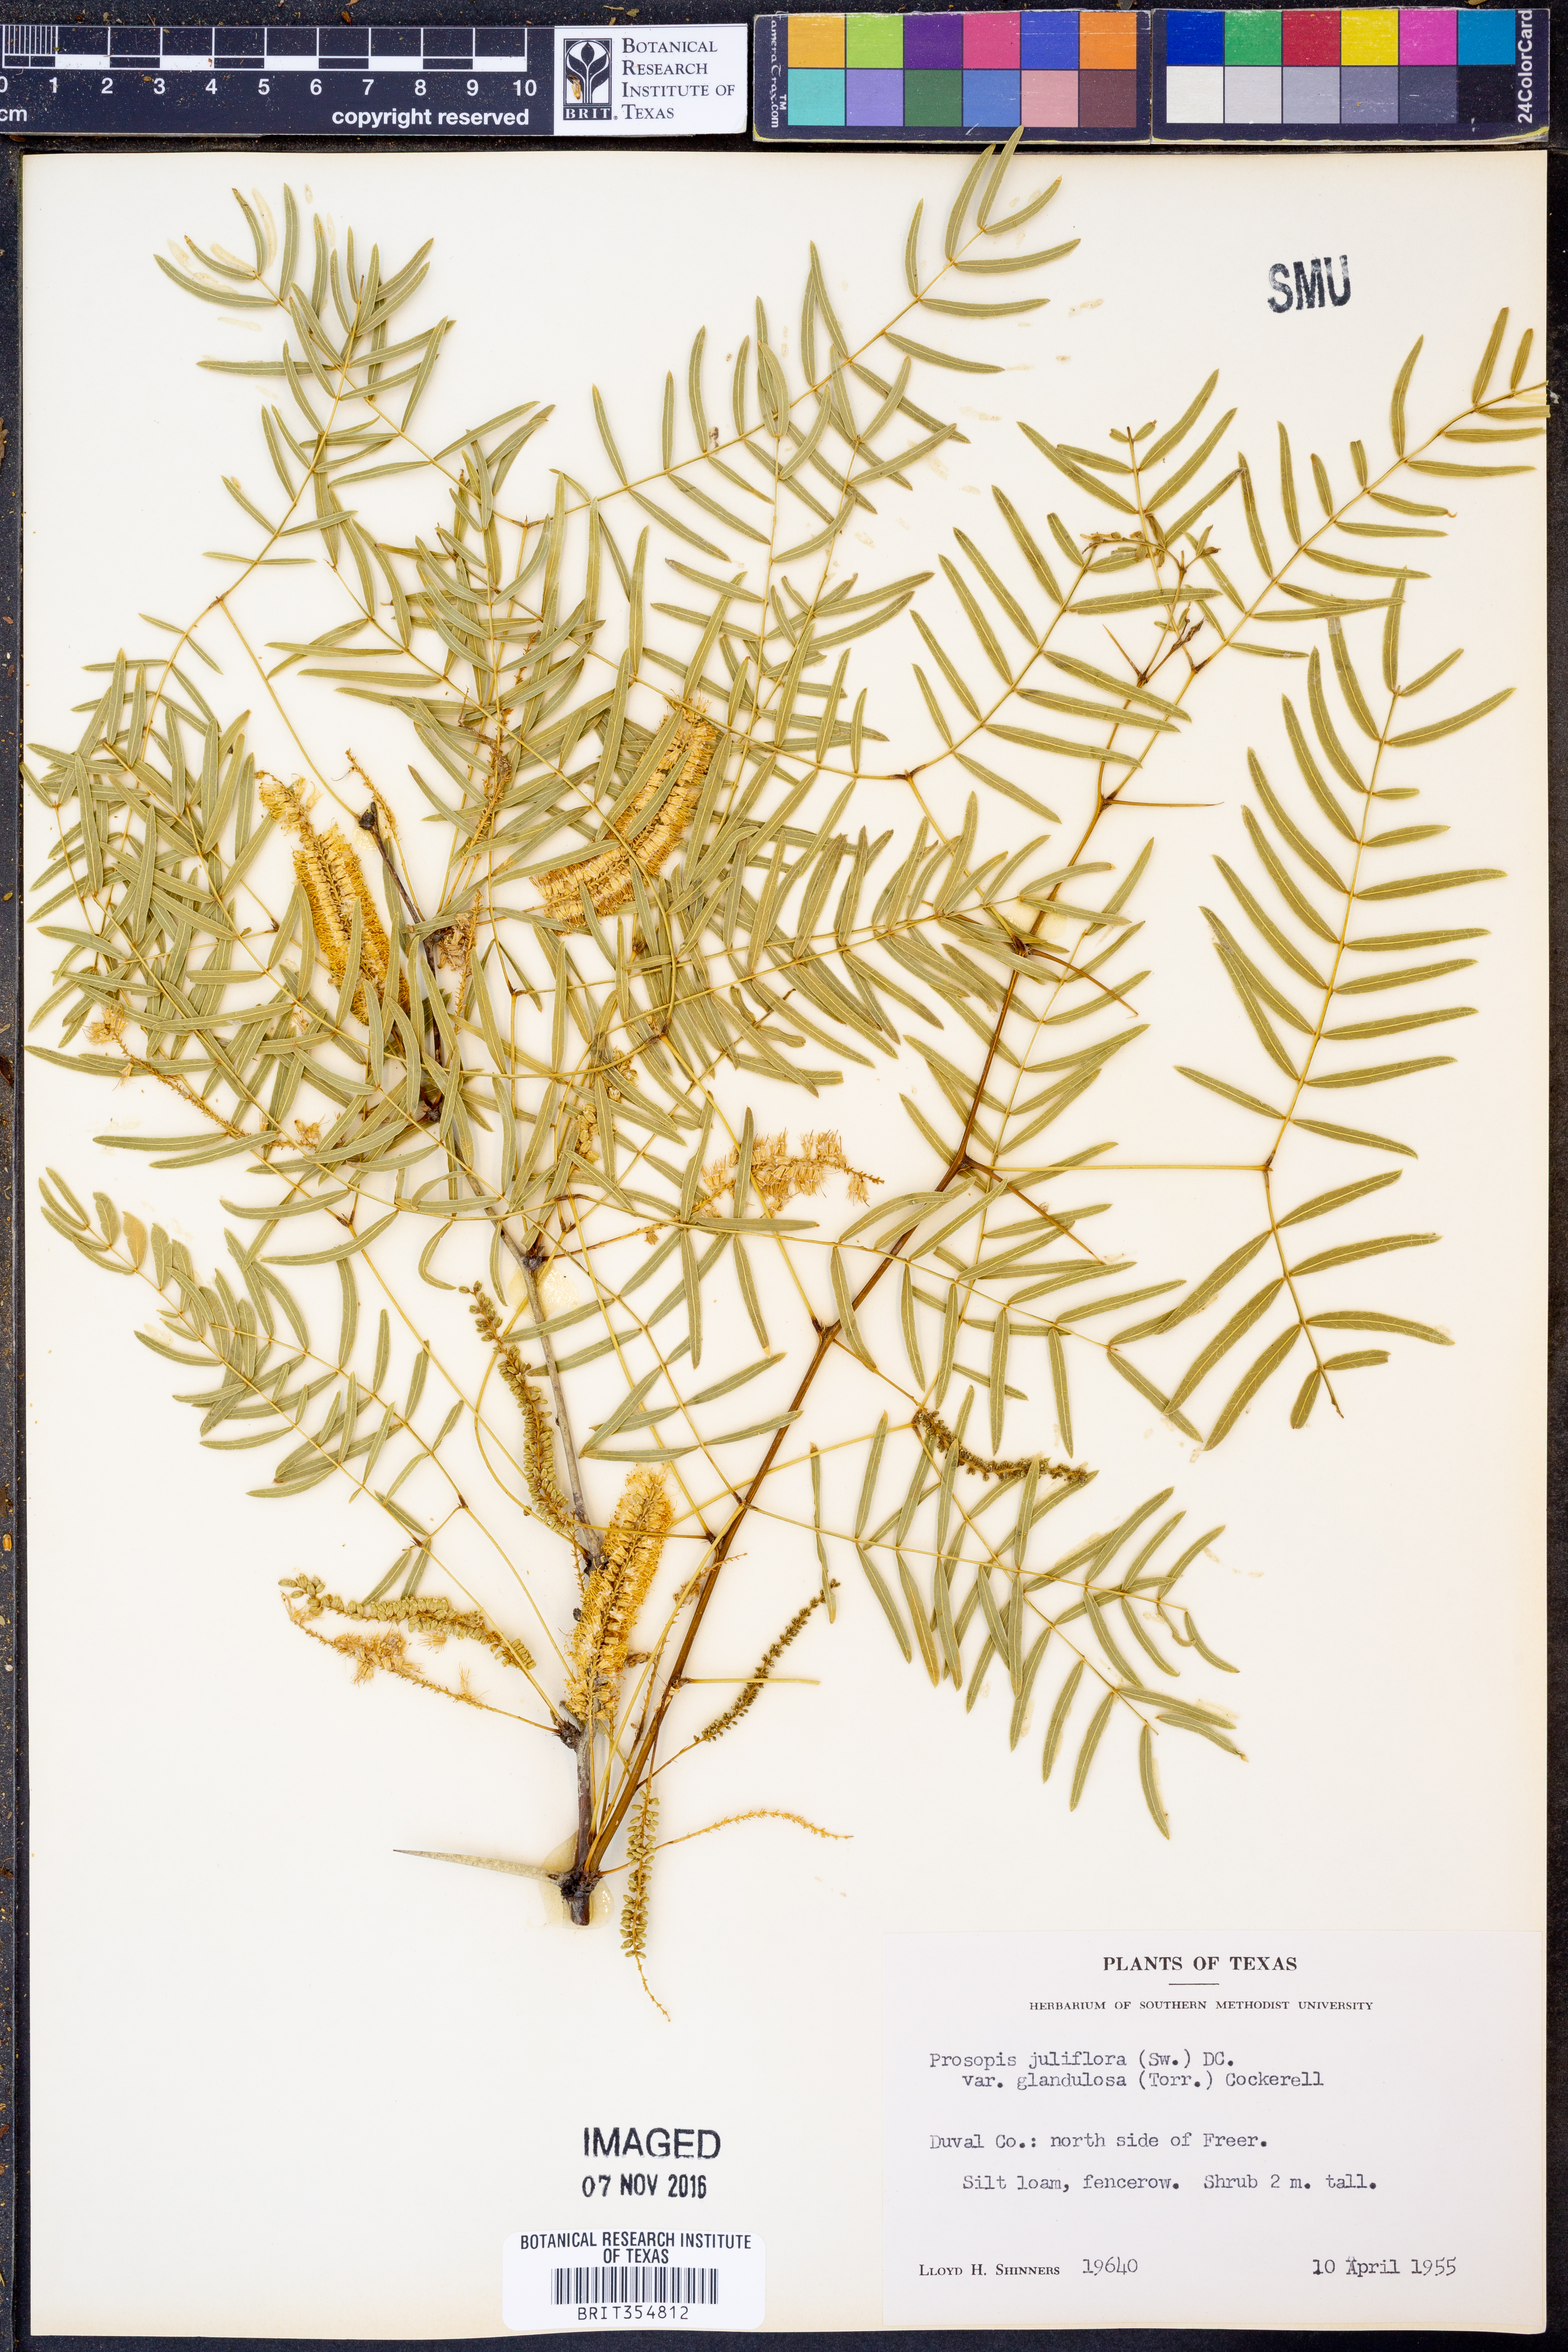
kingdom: Plantae
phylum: Tracheophyta
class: Magnoliopsida
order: Fabales
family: Fabaceae
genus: Prosopis
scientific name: Prosopis glandulosa
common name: Honey mesquite
